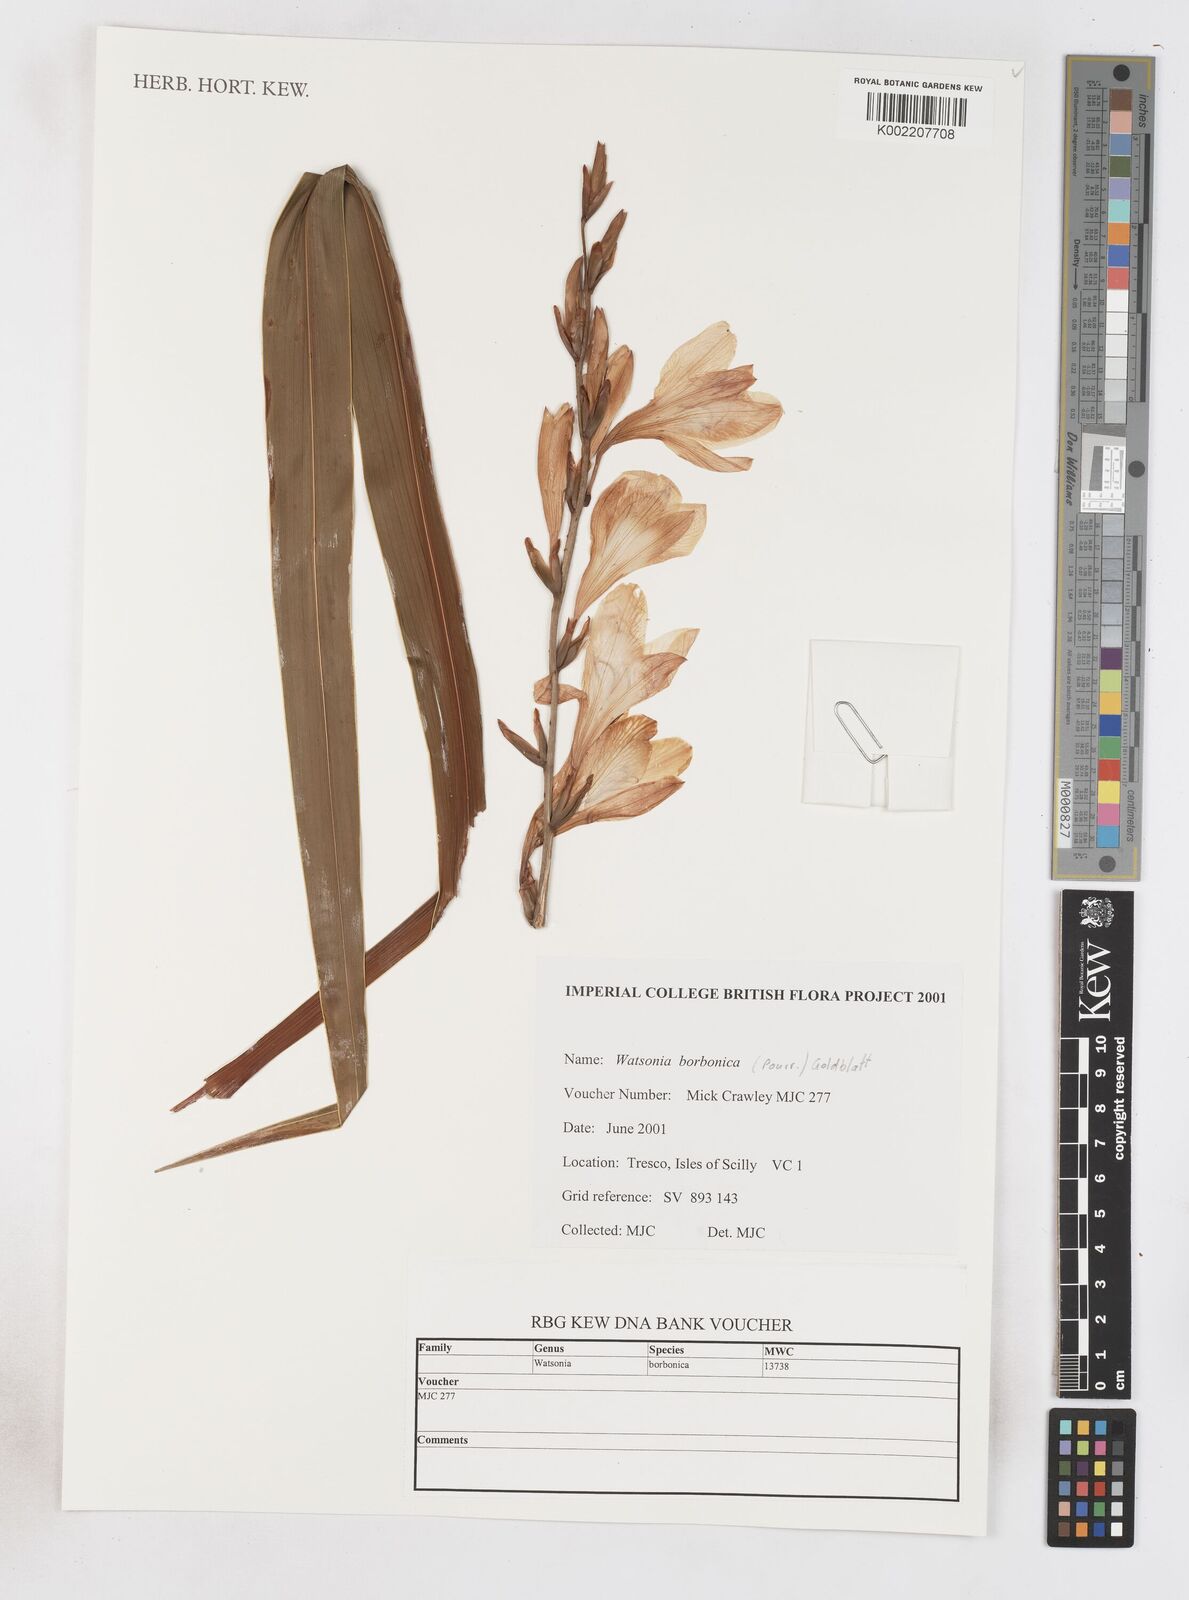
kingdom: Plantae
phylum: Tracheophyta
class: Liliopsida
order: Asparagales
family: Iridaceae
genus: Watsonia
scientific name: Watsonia borbonica
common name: Bugle-lily
